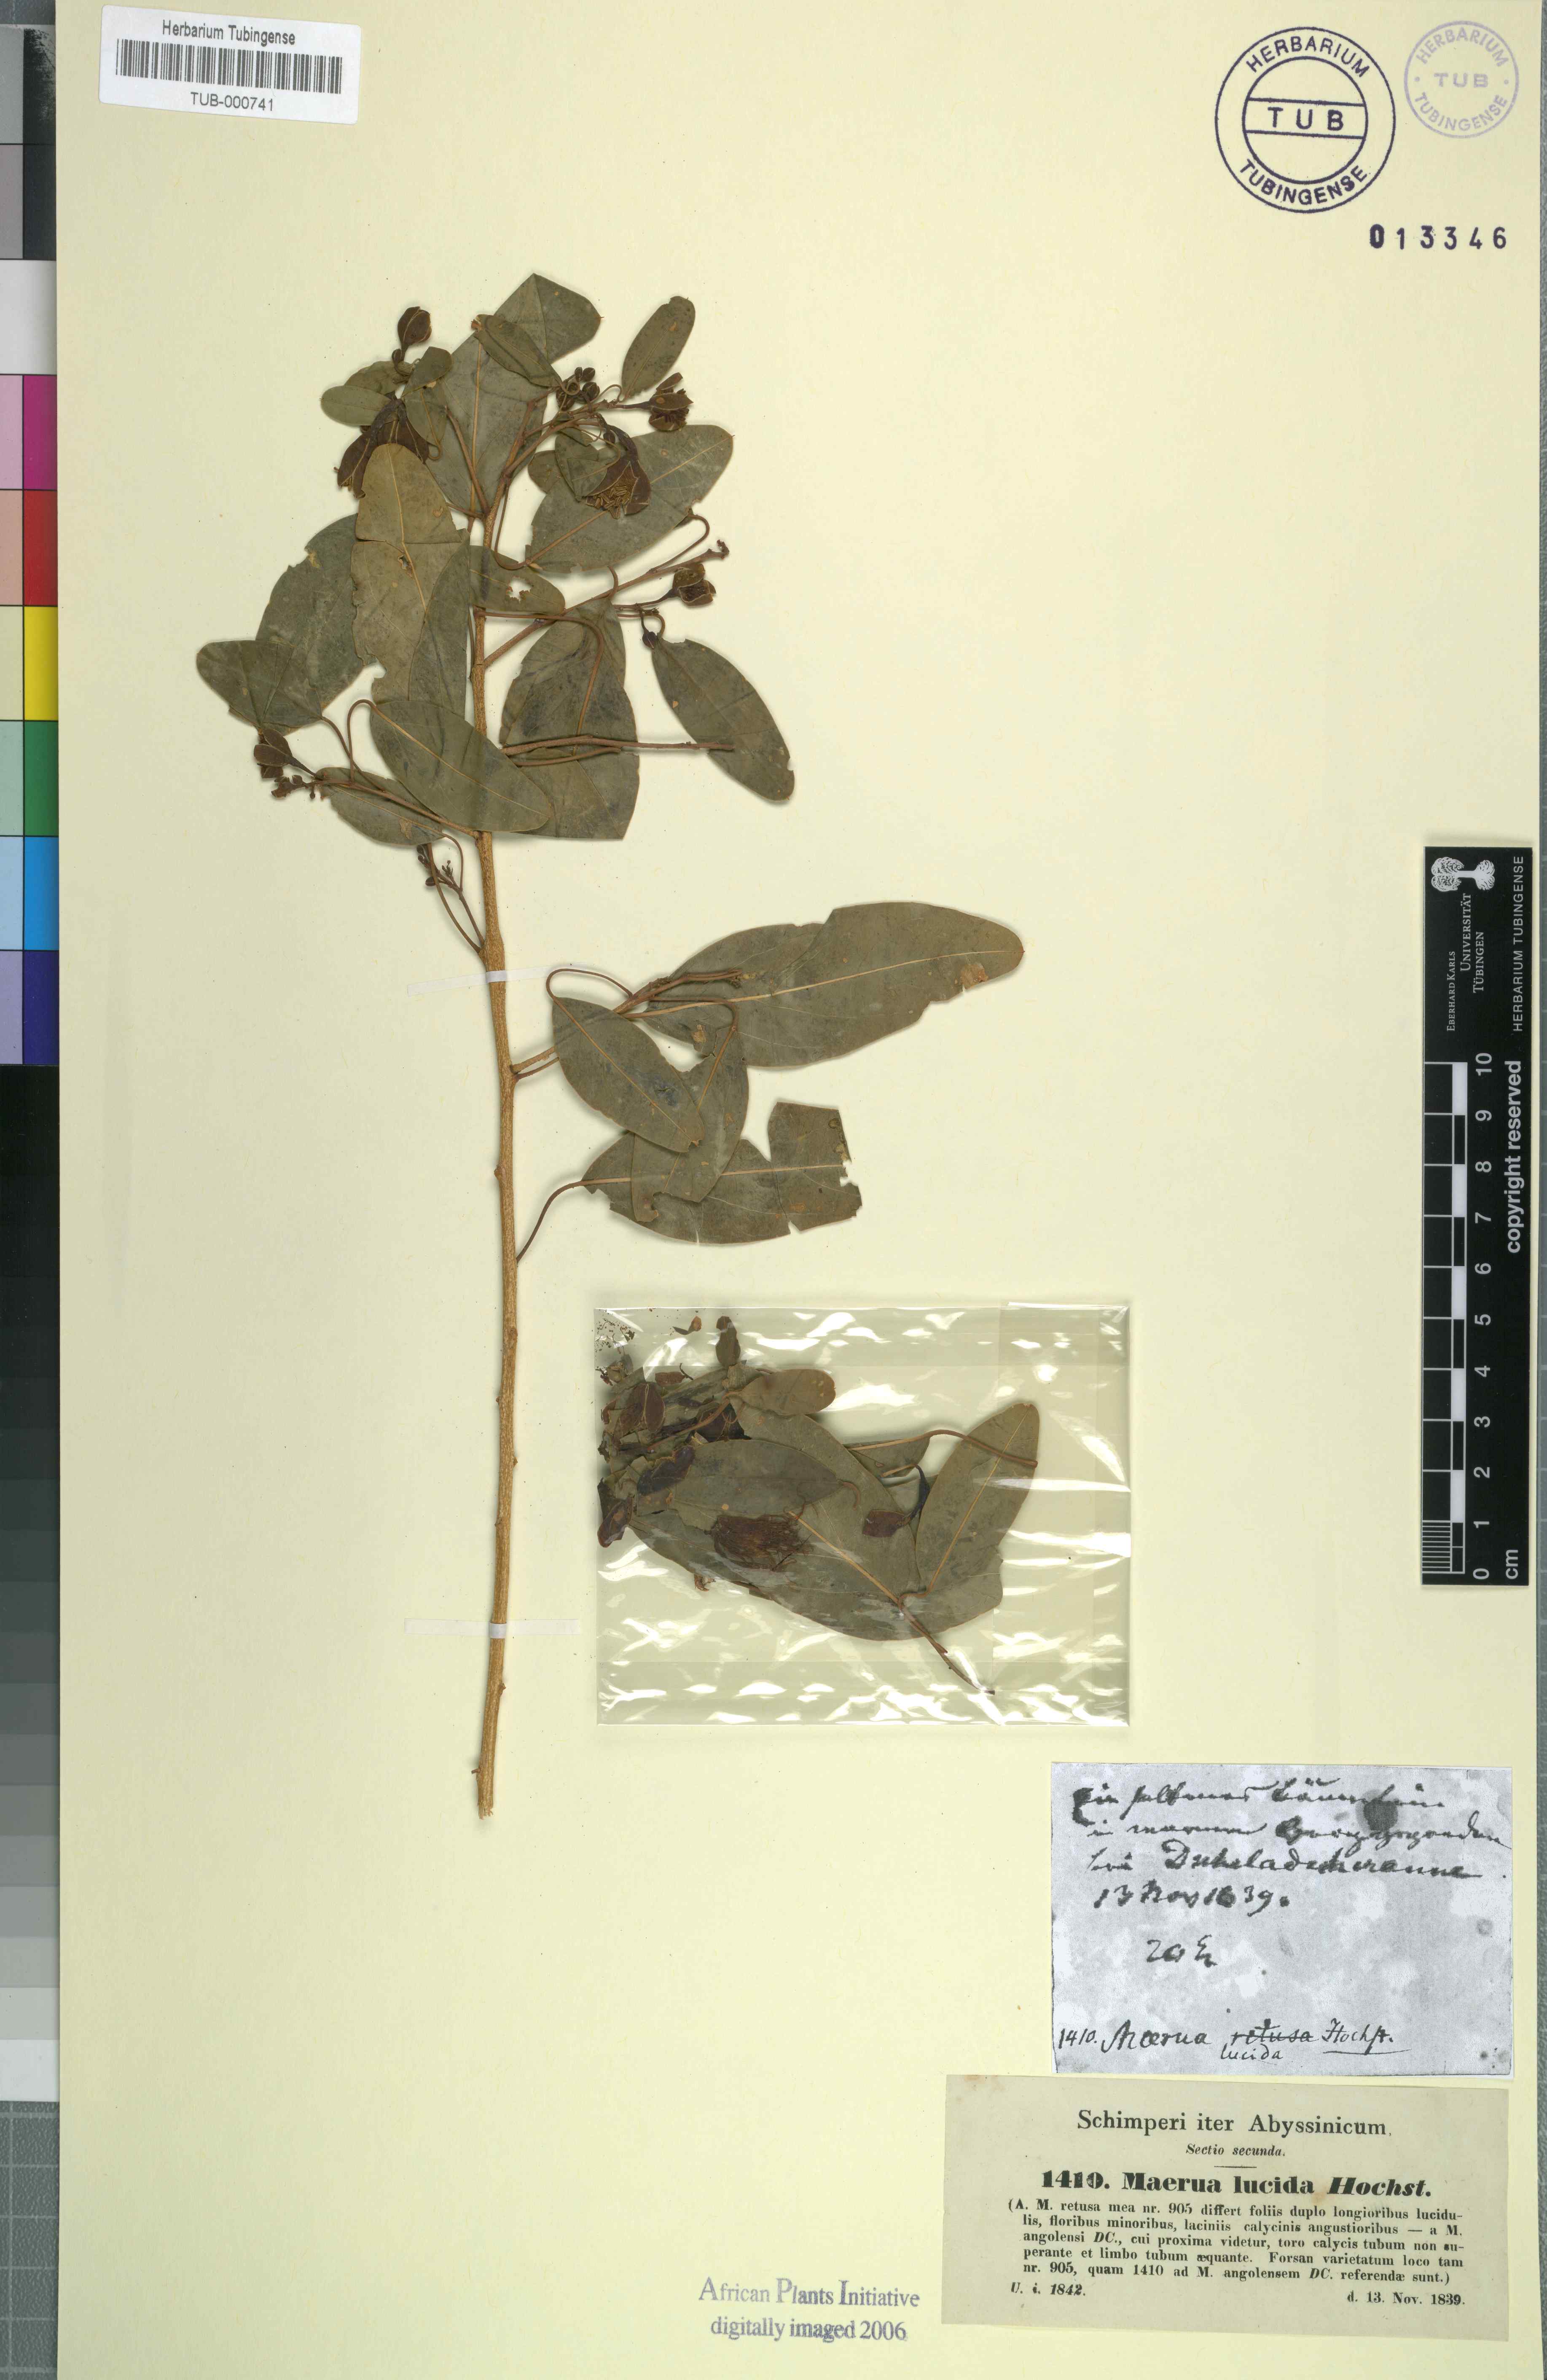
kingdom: Plantae
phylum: Tracheophyta
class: Magnoliopsida
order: Brassicales
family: Capparaceae
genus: Maerua
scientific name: Maerua angolensis
